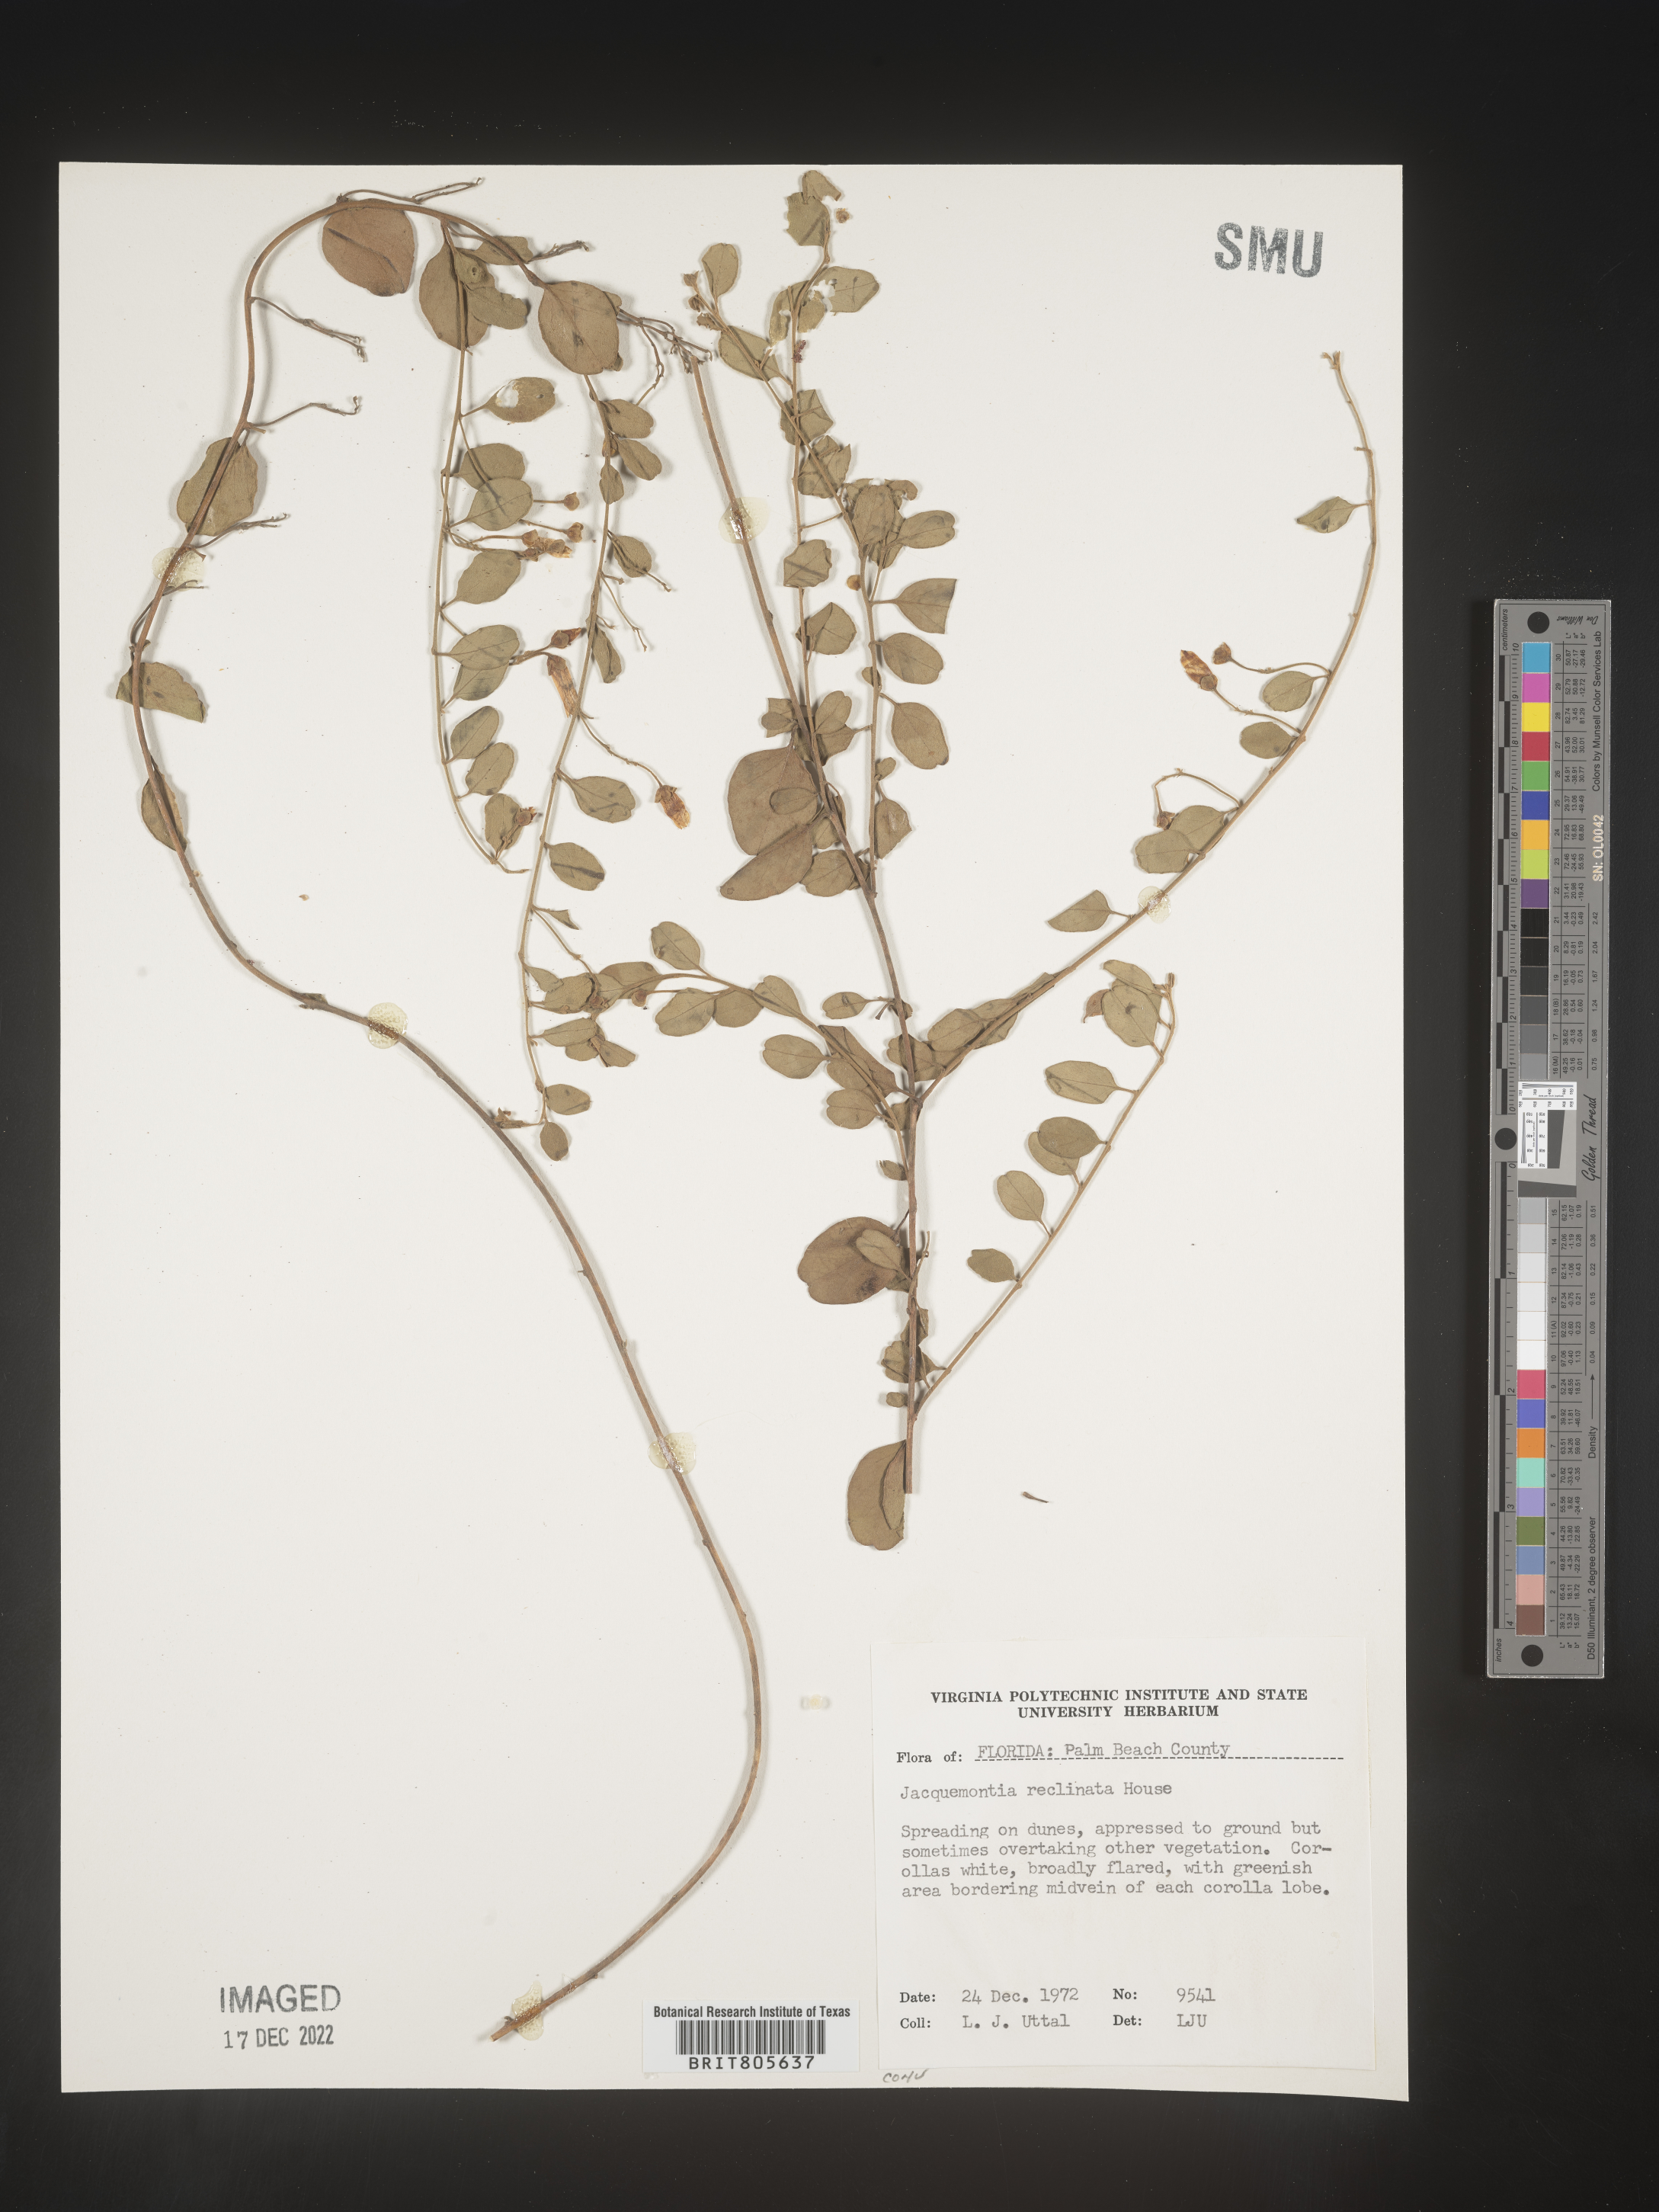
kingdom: Plantae
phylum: Tracheophyta
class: Magnoliopsida
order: Solanales
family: Convolvulaceae
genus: Jacquemontia
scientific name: Jacquemontia
